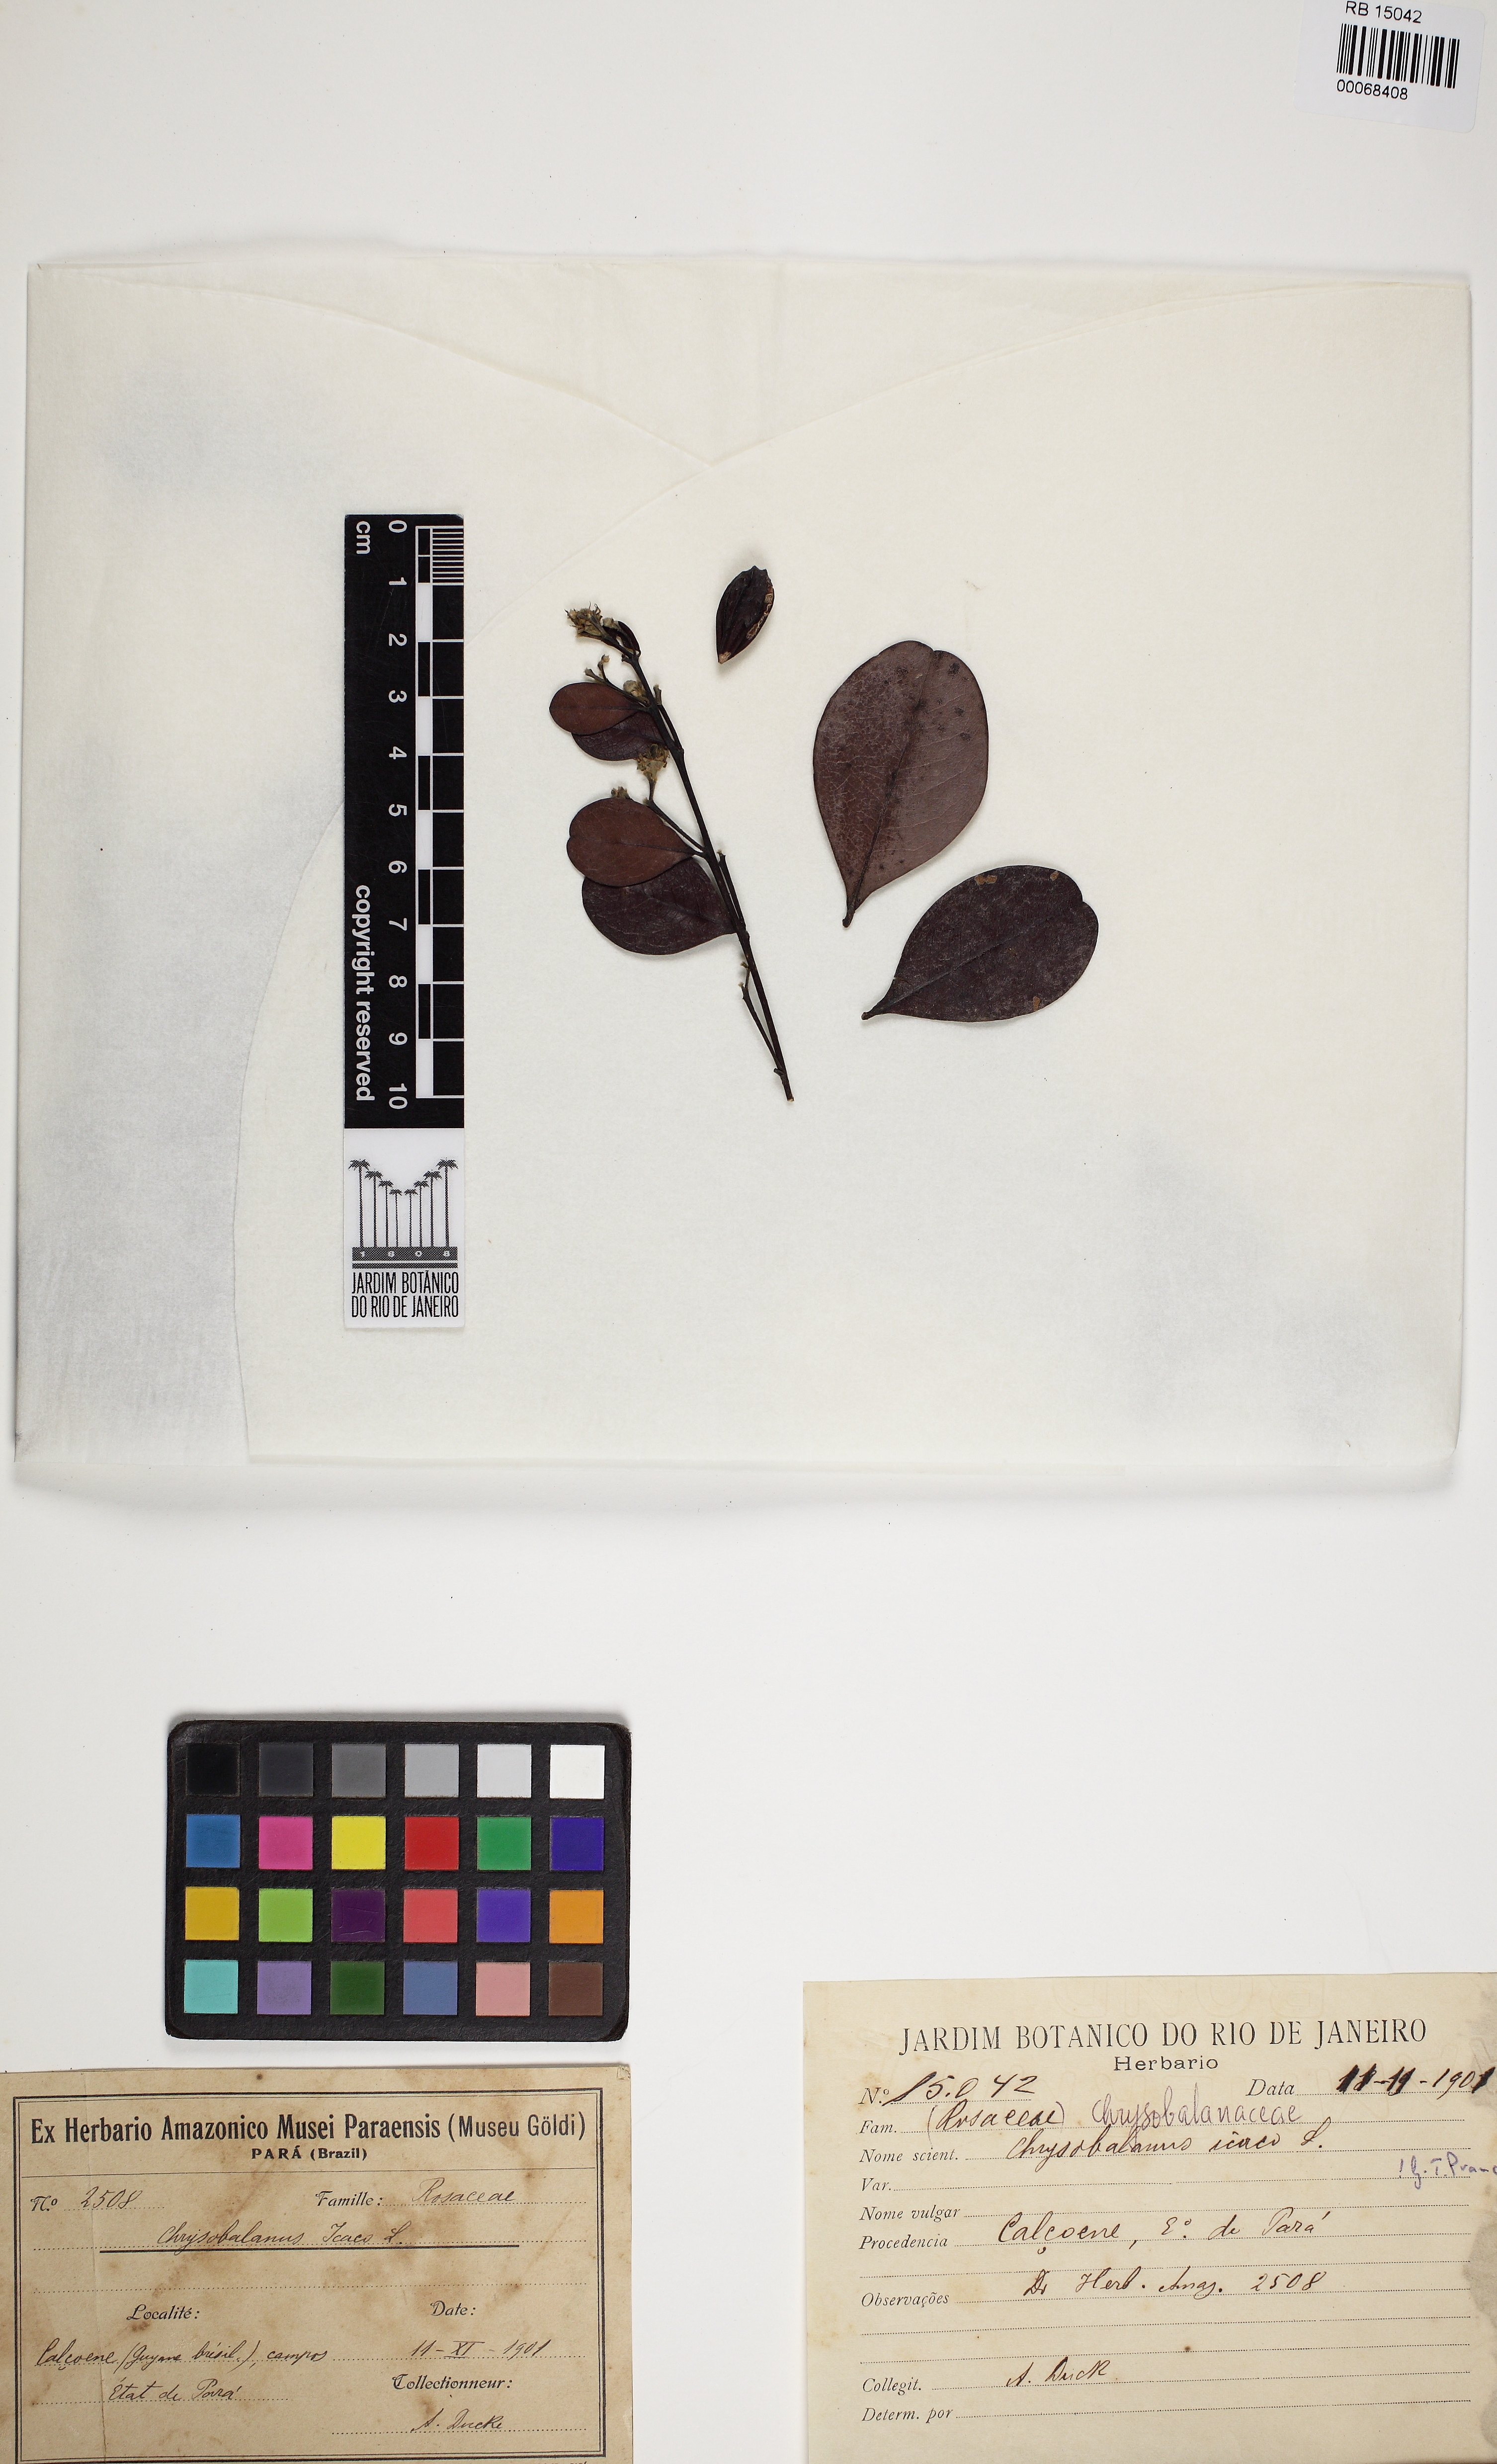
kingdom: Plantae
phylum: Tracheophyta
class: Magnoliopsida
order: Malpighiales
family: Chrysobalanaceae
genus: Chrysobalanus
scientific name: Chrysobalanus icaco
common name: Coco plum
